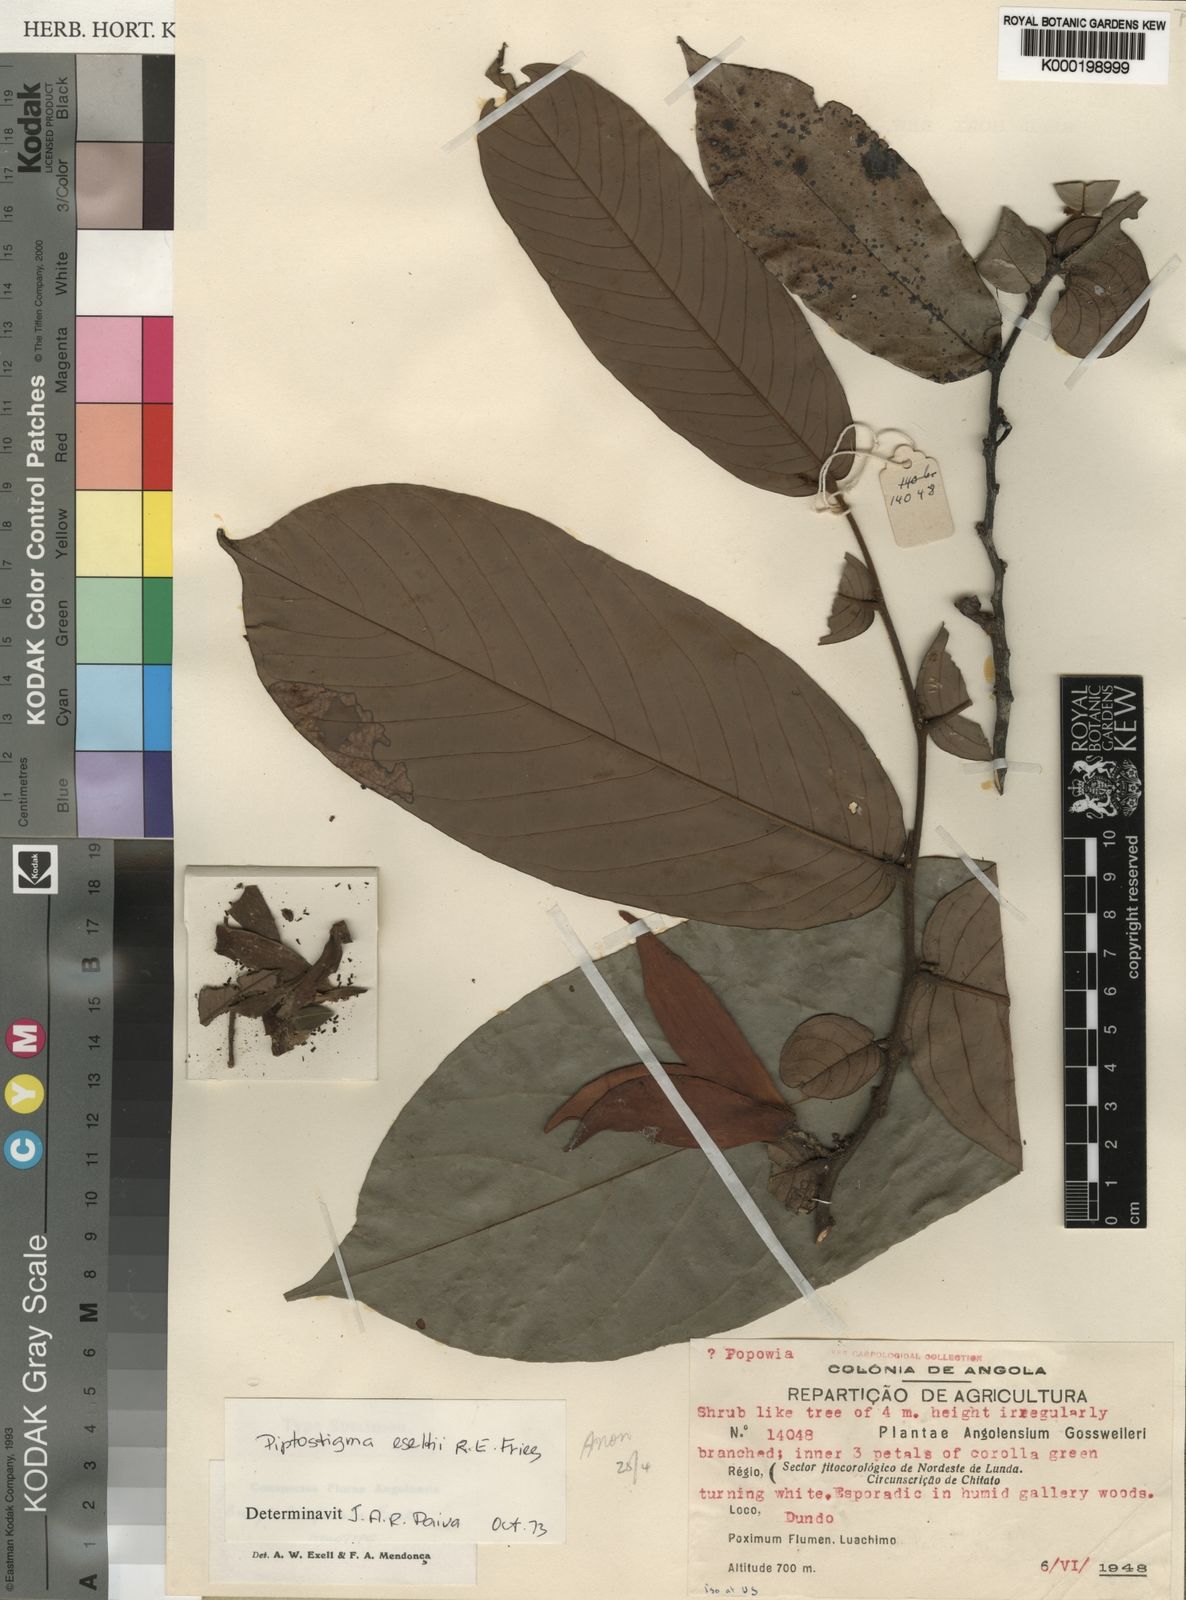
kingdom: Plantae
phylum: Tracheophyta
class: Magnoliopsida
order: Magnoliales
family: Annonaceae
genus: Piptostigma
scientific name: Piptostigma
